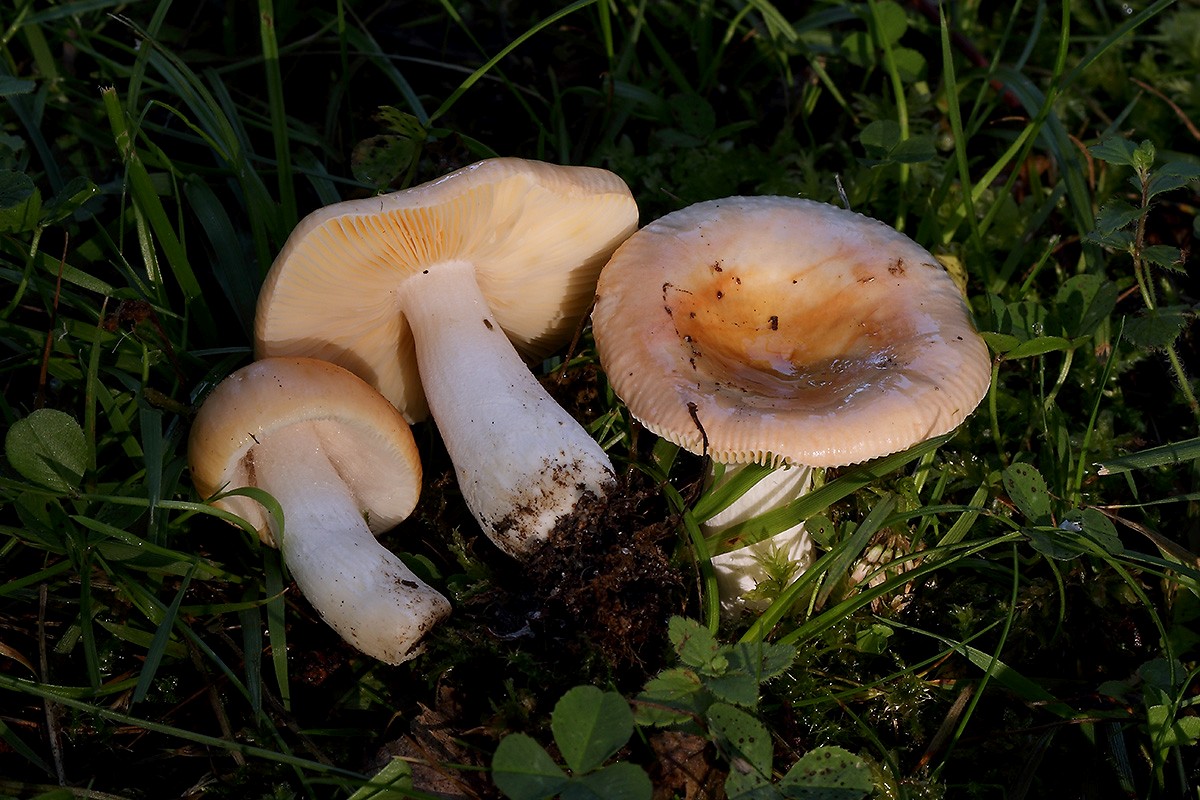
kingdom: Fungi
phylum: Basidiomycota
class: Agaricomycetes
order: Russulales
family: Russulaceae
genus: Russula
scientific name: Russula odorata
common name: duft-skørhat
